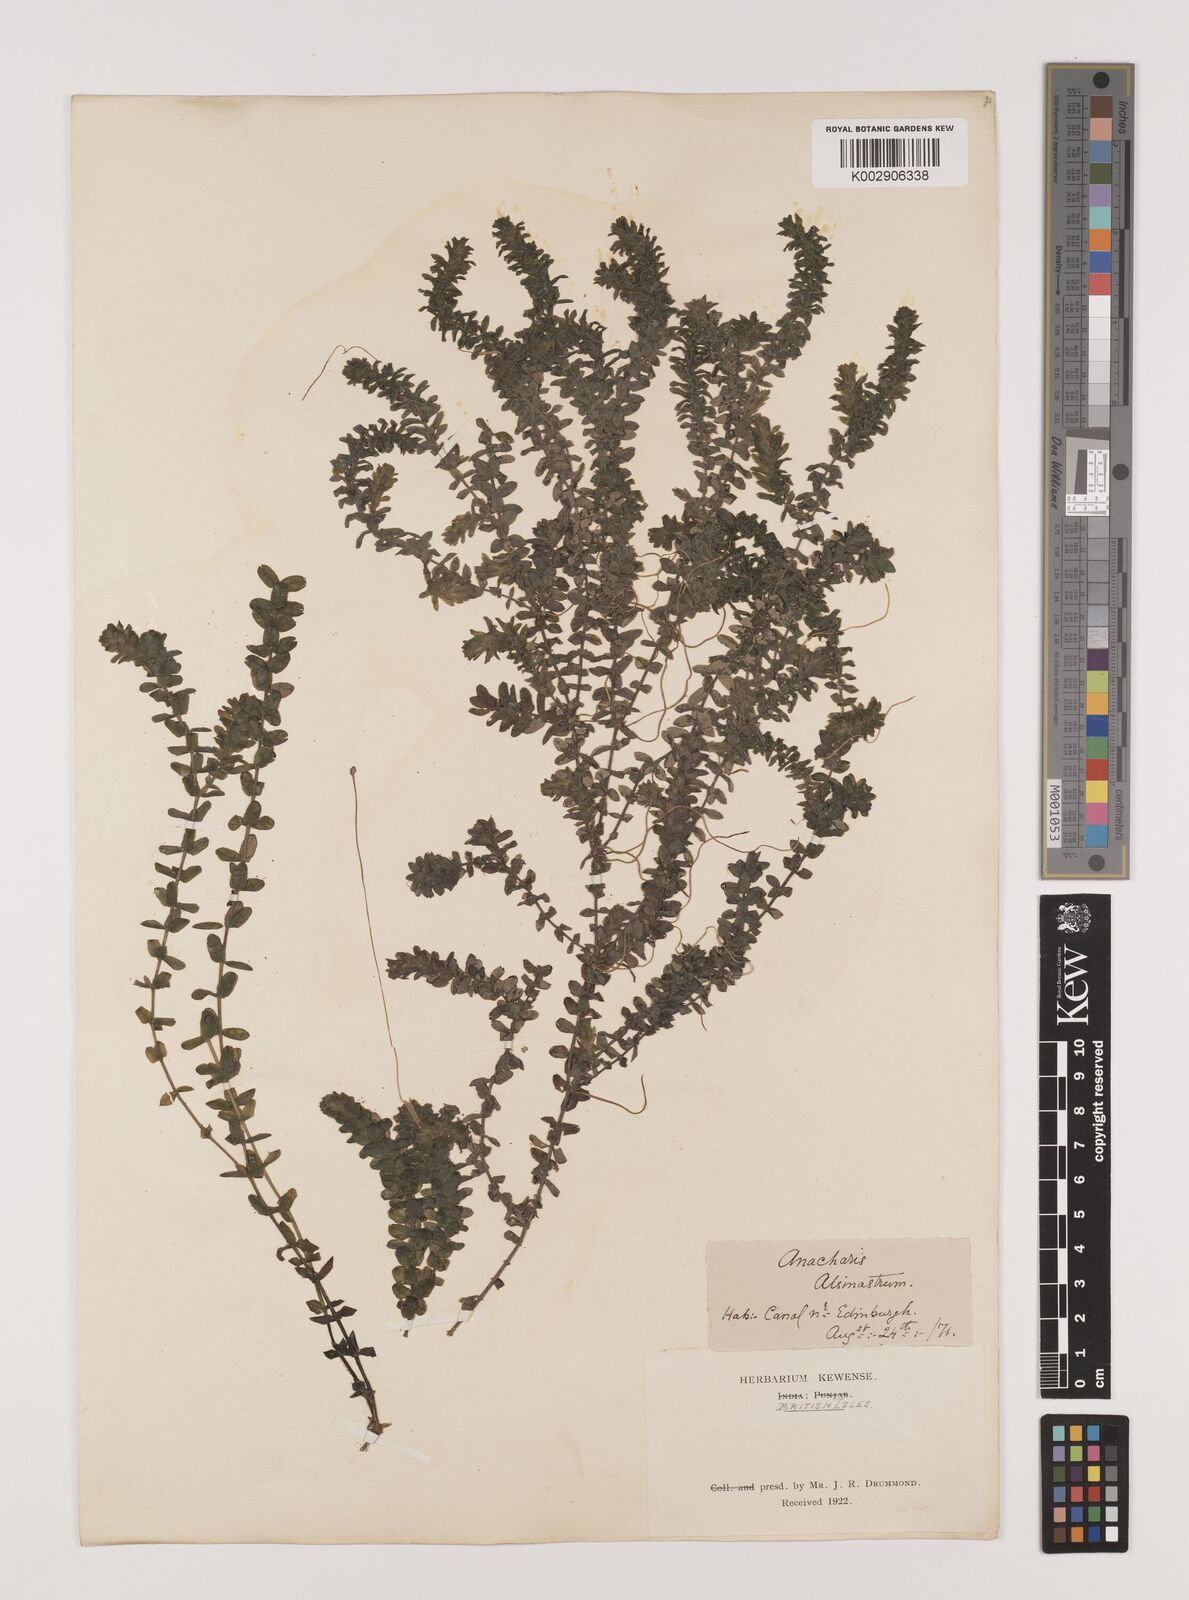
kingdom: Plantae
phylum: Tracheophyta
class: Liliopsida
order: Alismatales
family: Hydrocharitaceae
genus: Elodea
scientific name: Elodea canadensis
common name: Canadian waterweed
